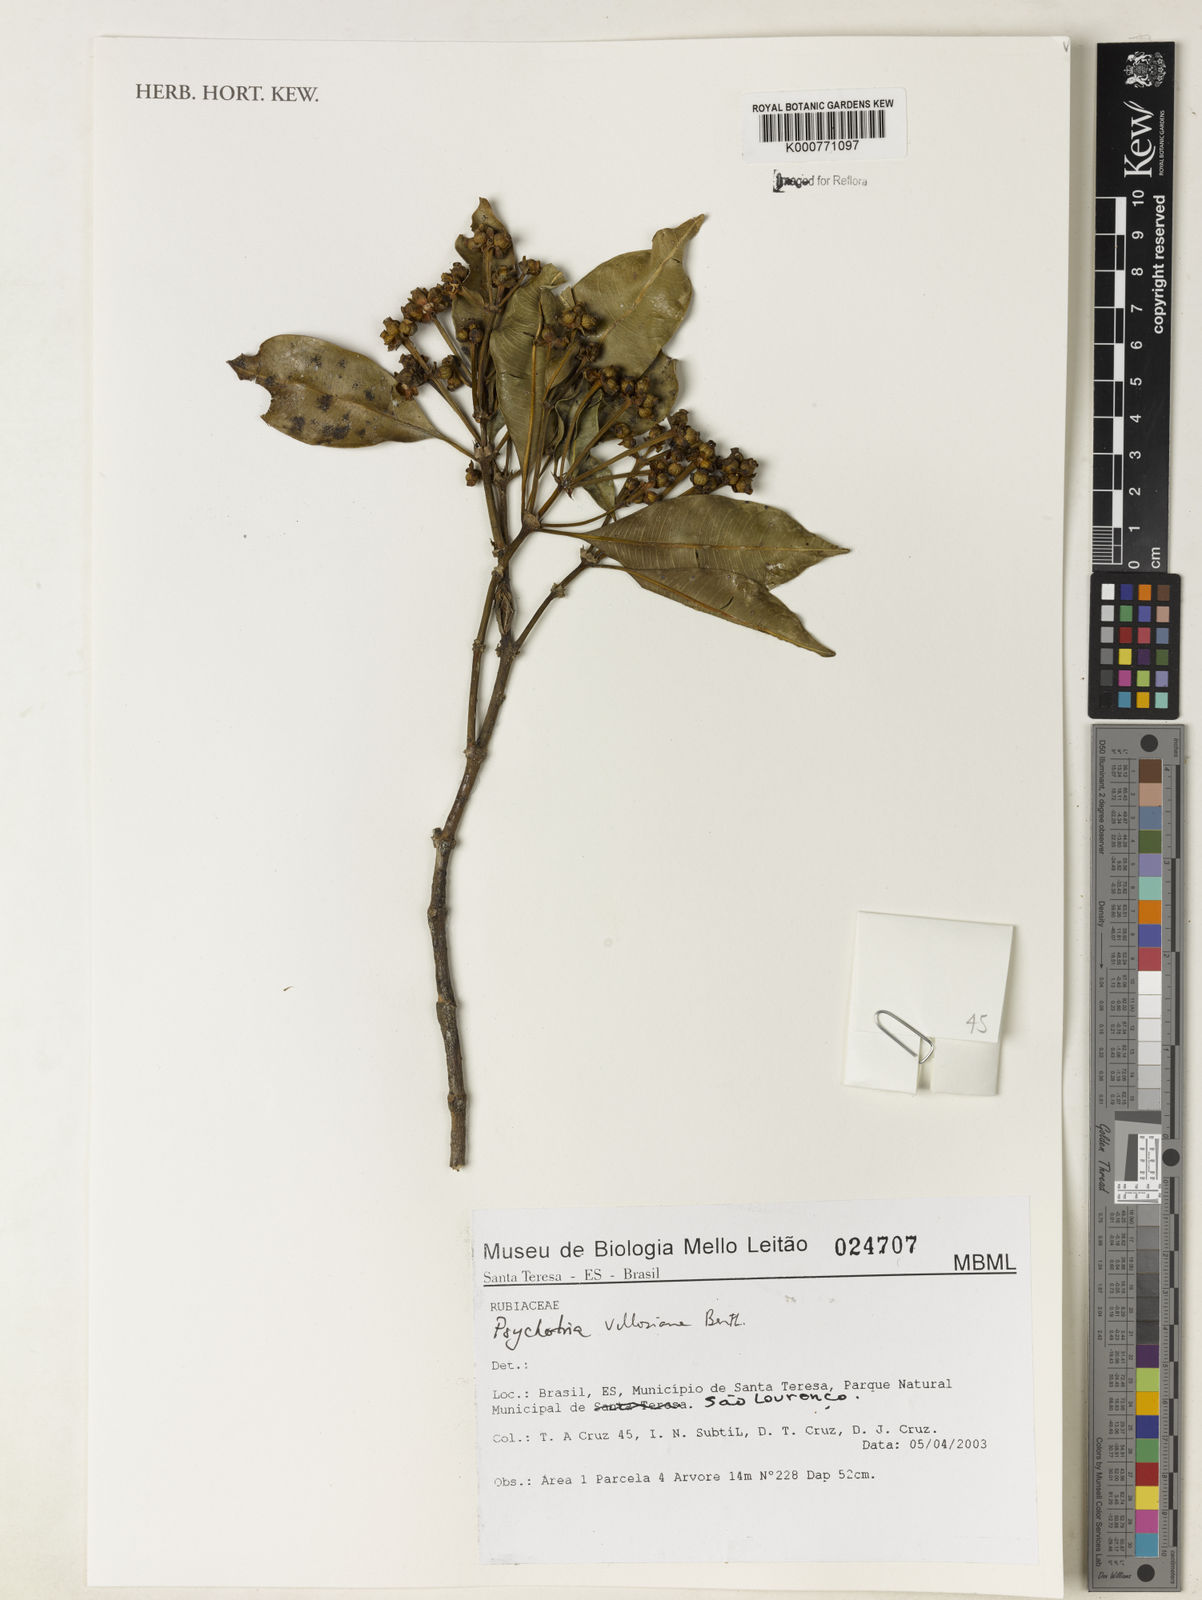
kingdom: Plantae
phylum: Tracheophyta
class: Magnoliopsida
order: Gentianales
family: Rubiaceae
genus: Palicourea
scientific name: Palicourea sessilis
